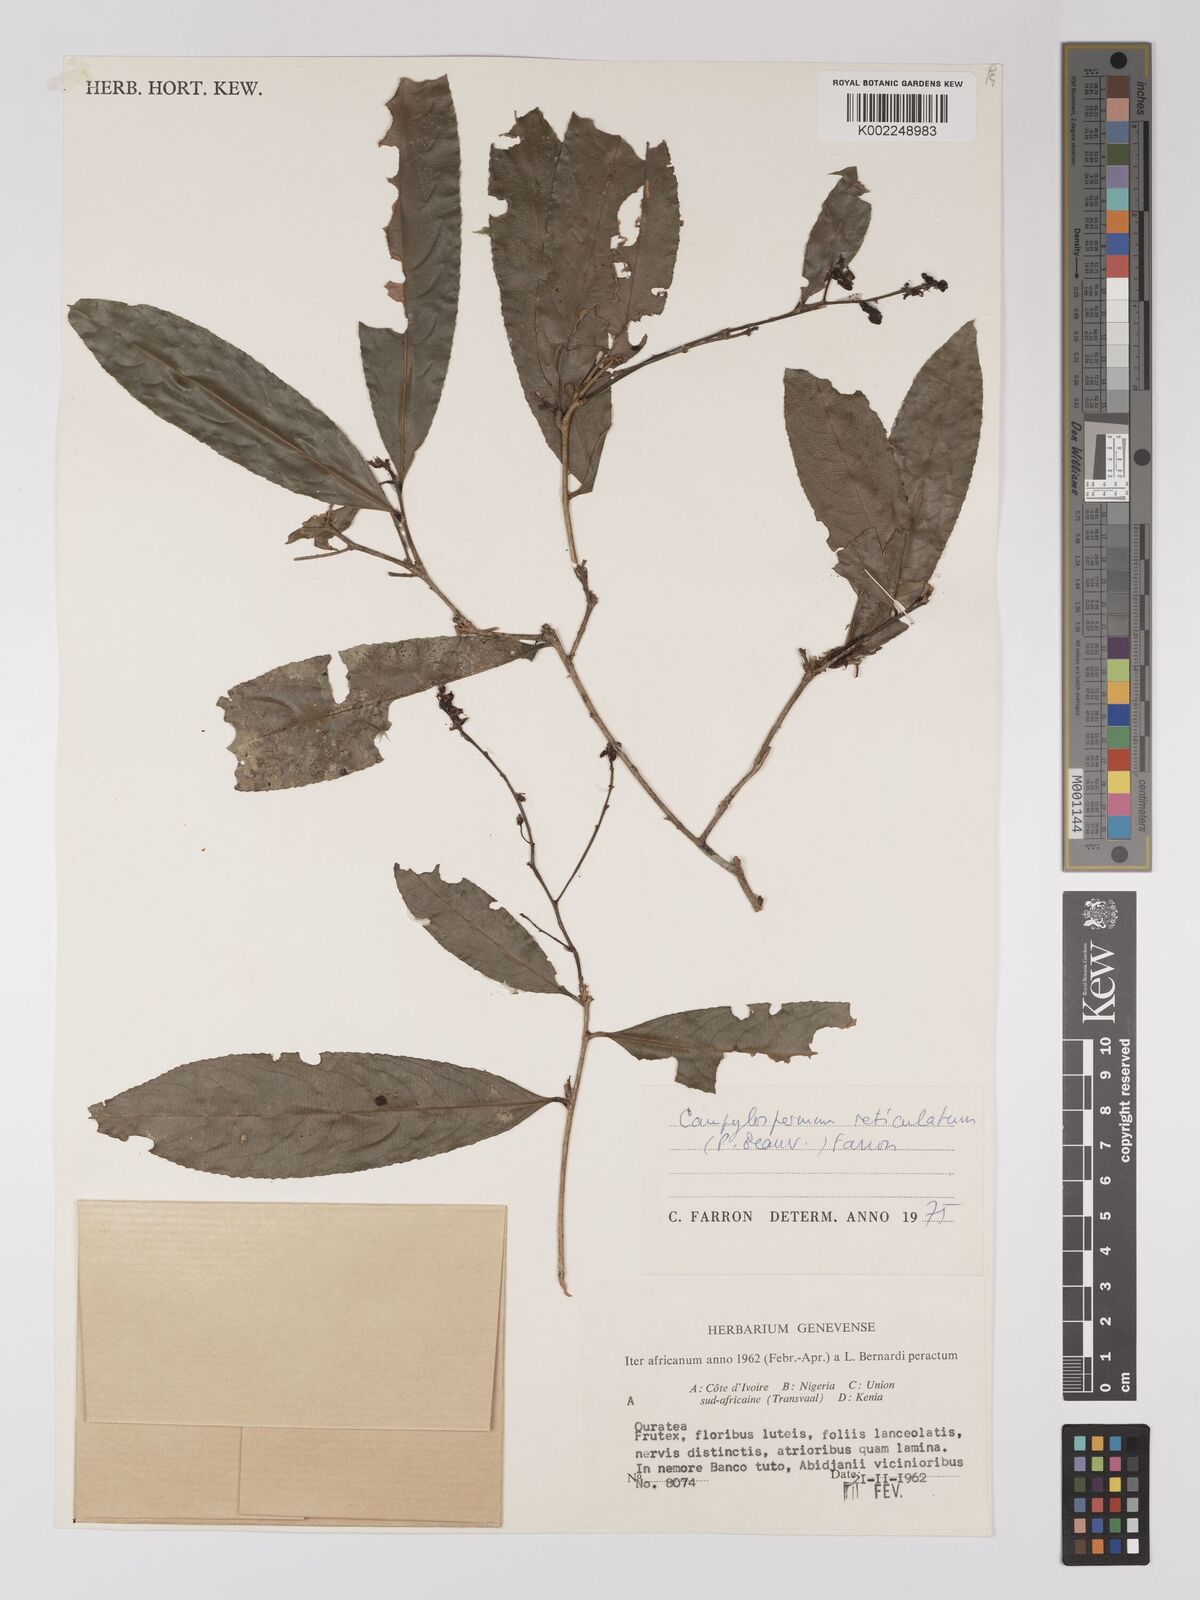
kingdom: Plantae
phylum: Tracheophyta
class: Magnoliopsida
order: Malpighiales
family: Ochnaceae
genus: Campylospermum
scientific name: Campylospermum reticulatum
